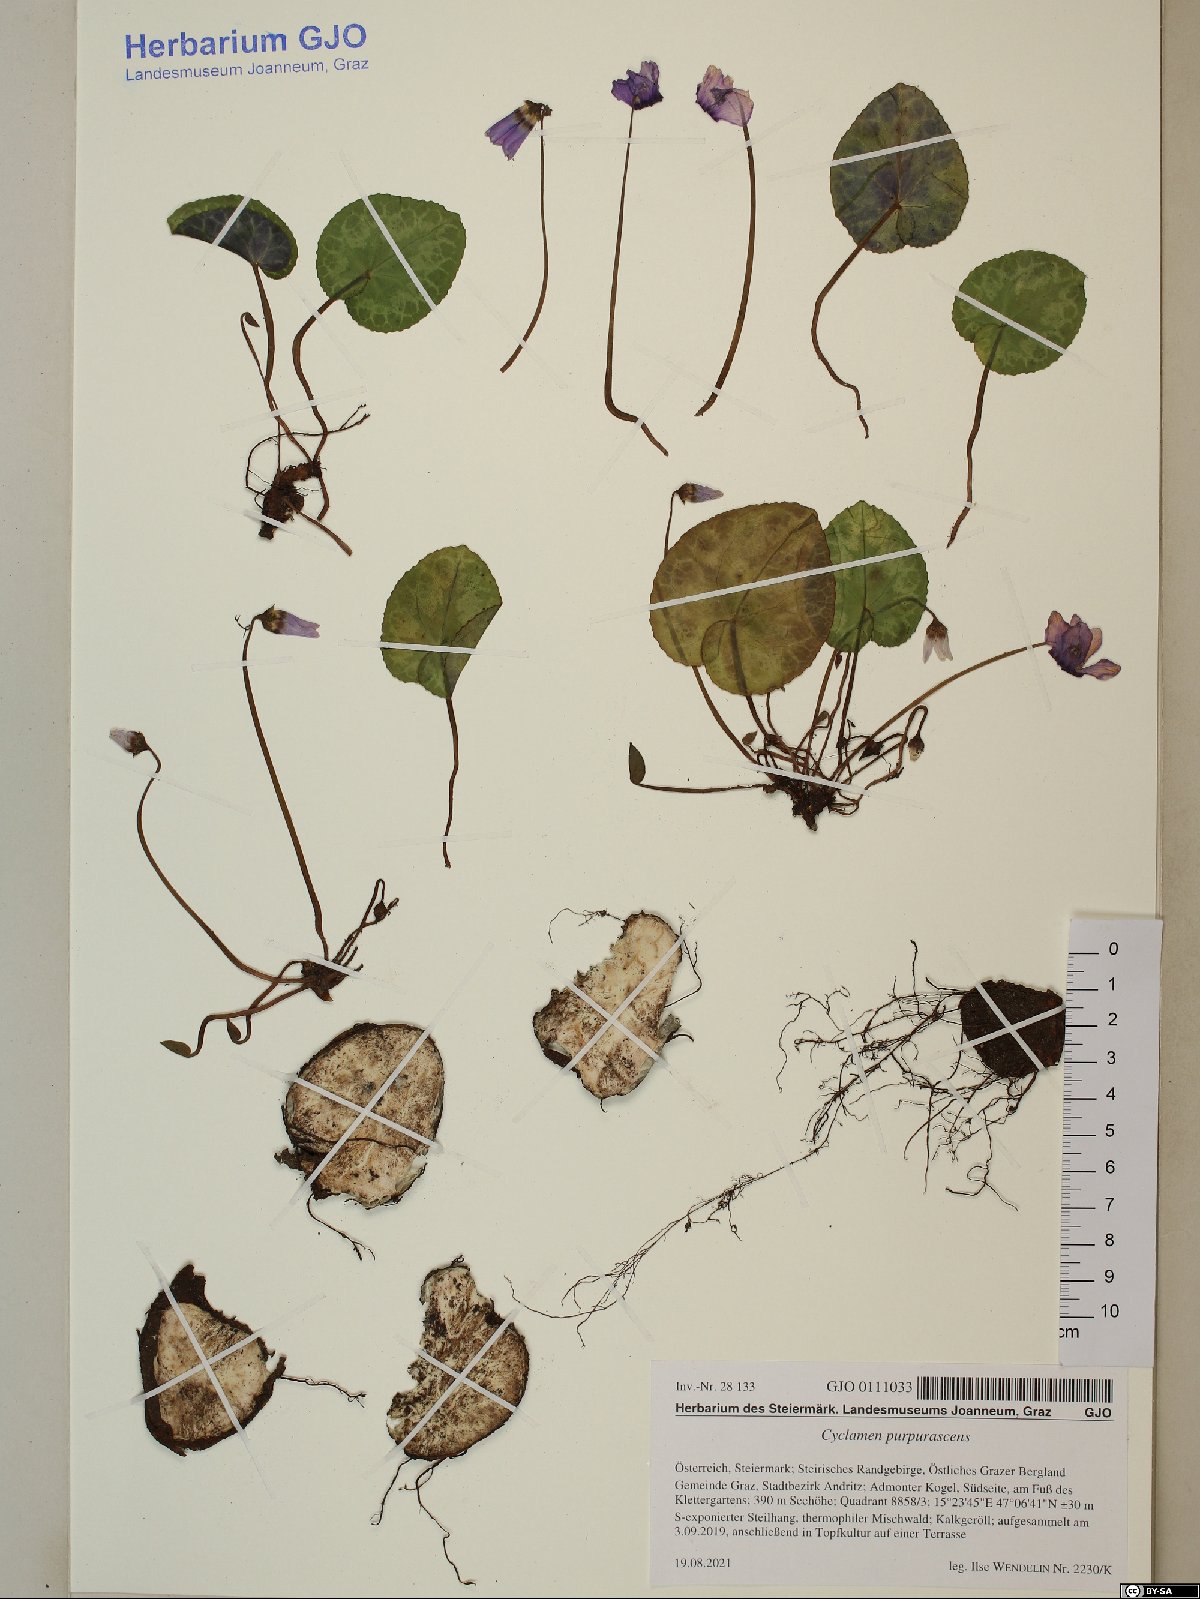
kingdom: Plantae
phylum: Tracheophyta
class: Magnoliopsida
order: Ericales
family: Primulaceae
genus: Cyclamen
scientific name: Cyclamen purpurascens
